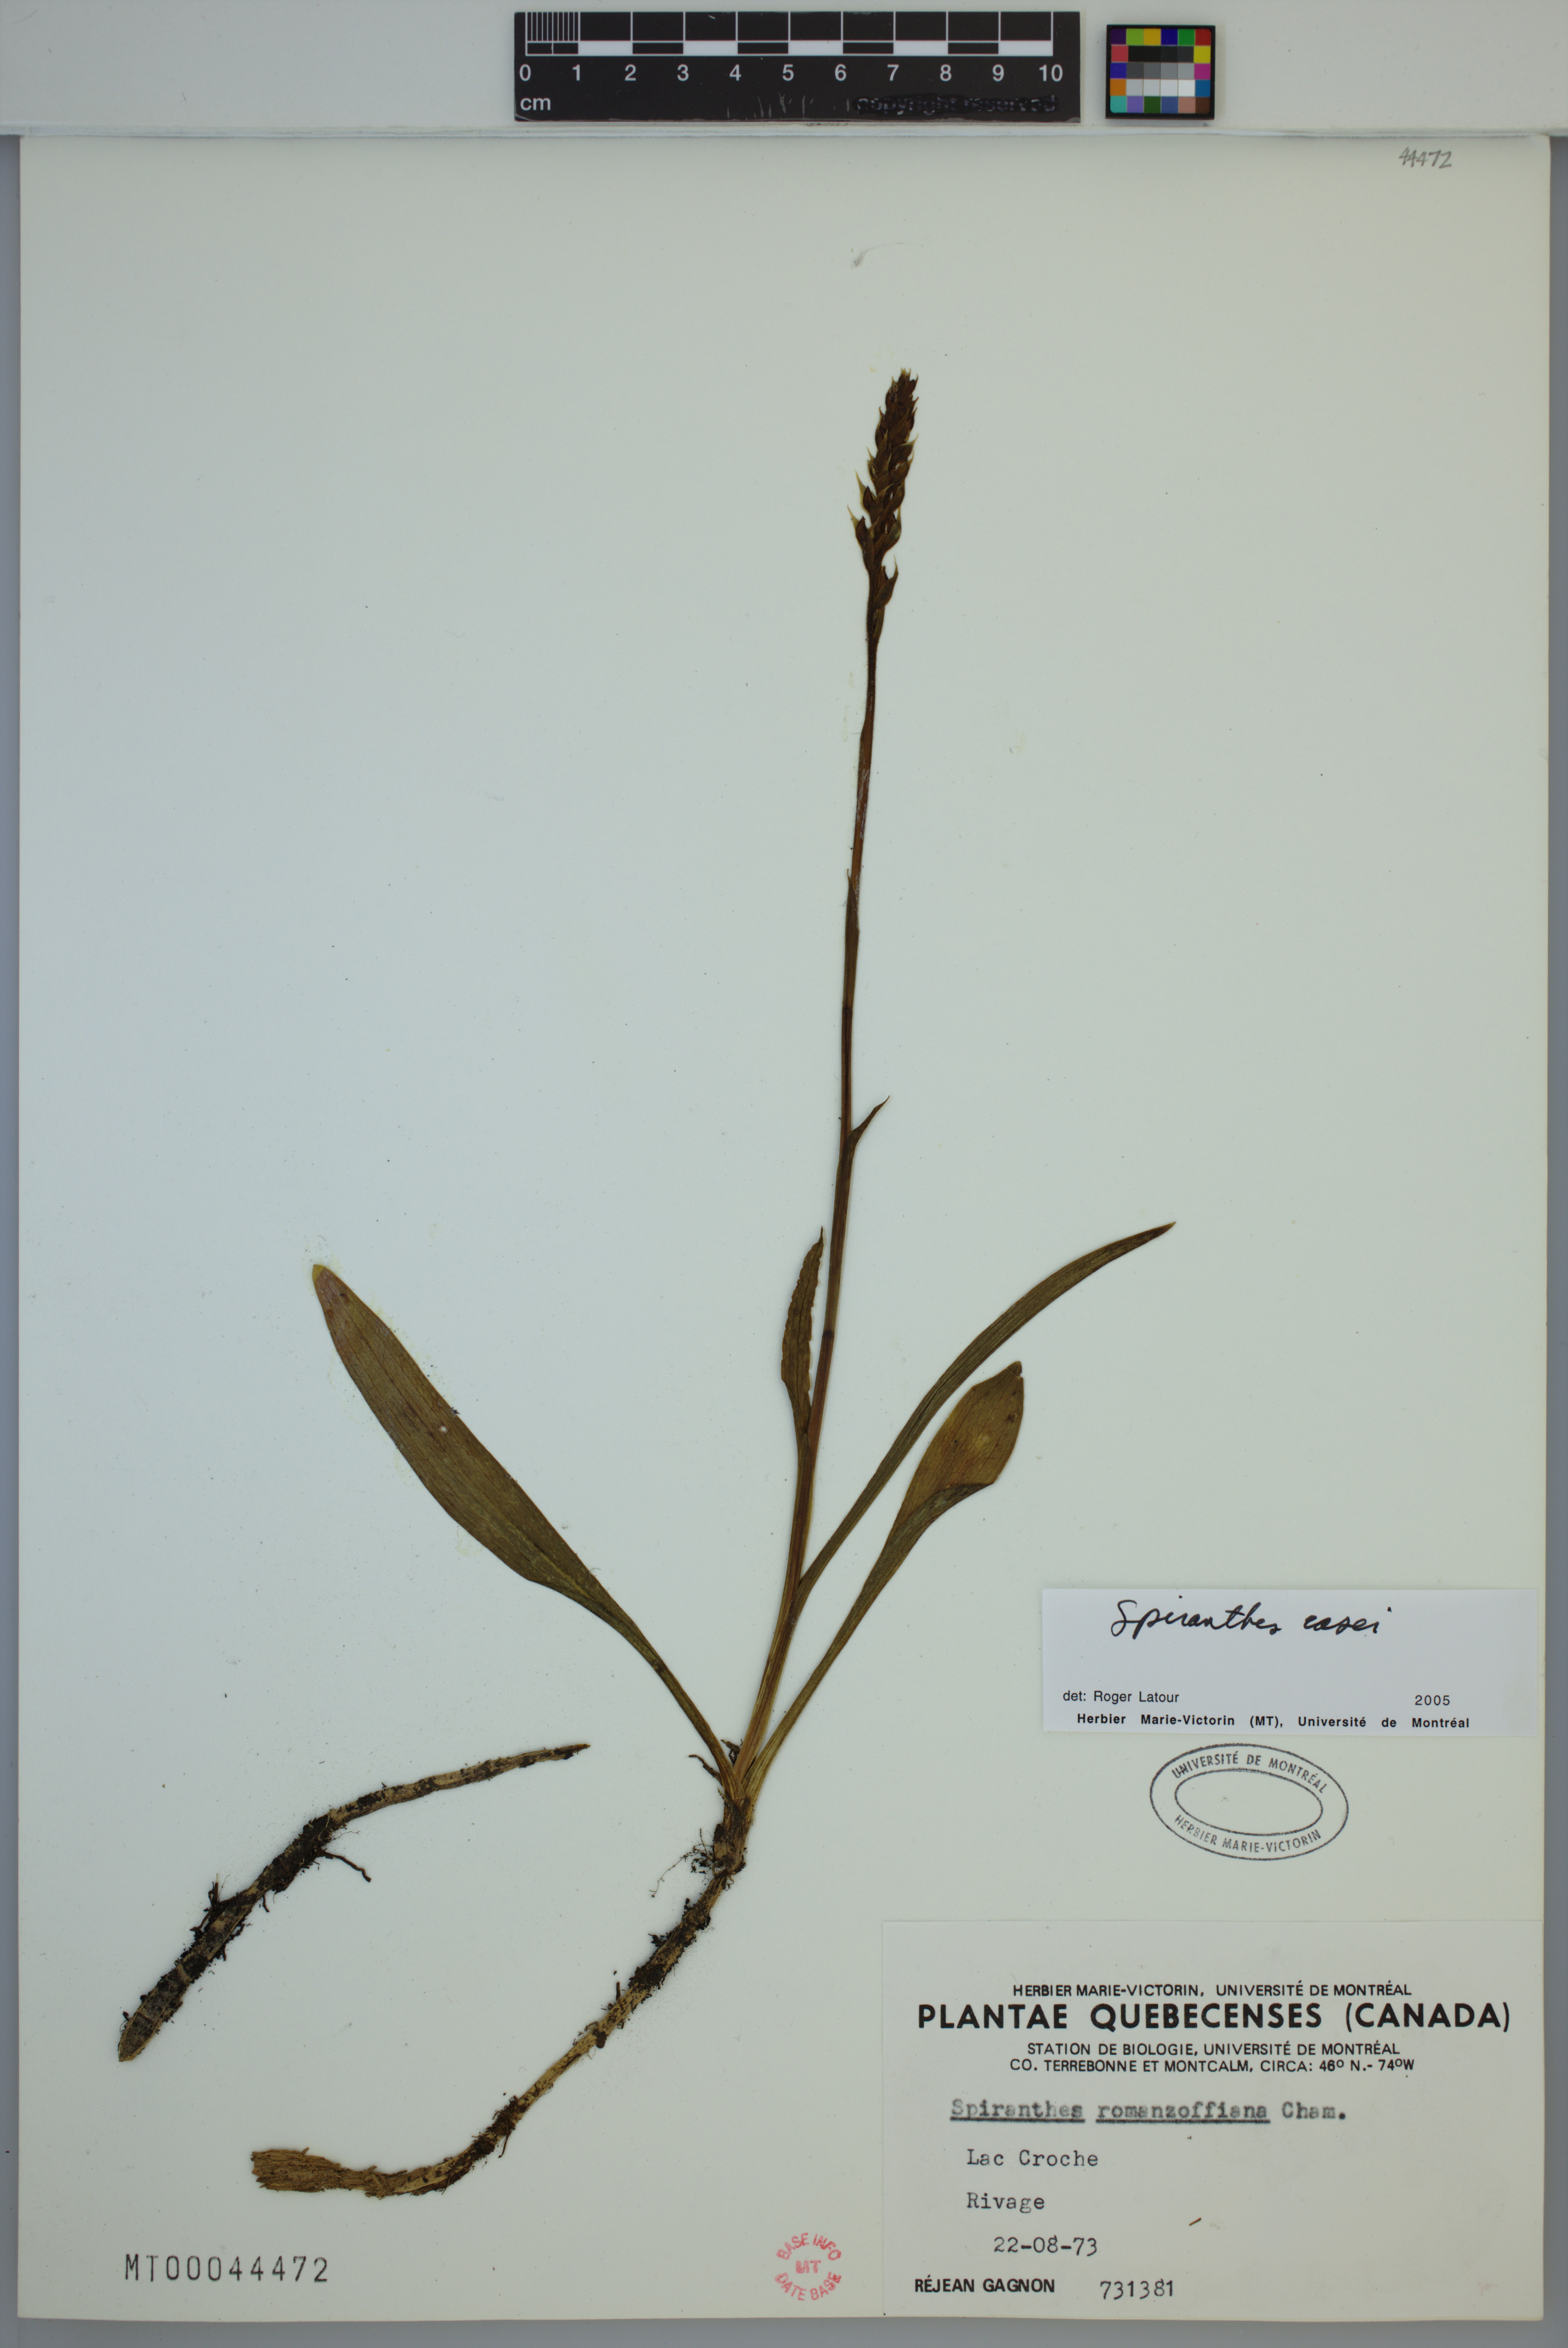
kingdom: Plantae
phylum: Tracheophyta
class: Liliopsida
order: Asparagales
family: Orchidaceae
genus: Spiranthes
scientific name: Spiranthes casei
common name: Case's ladies'-tresses
